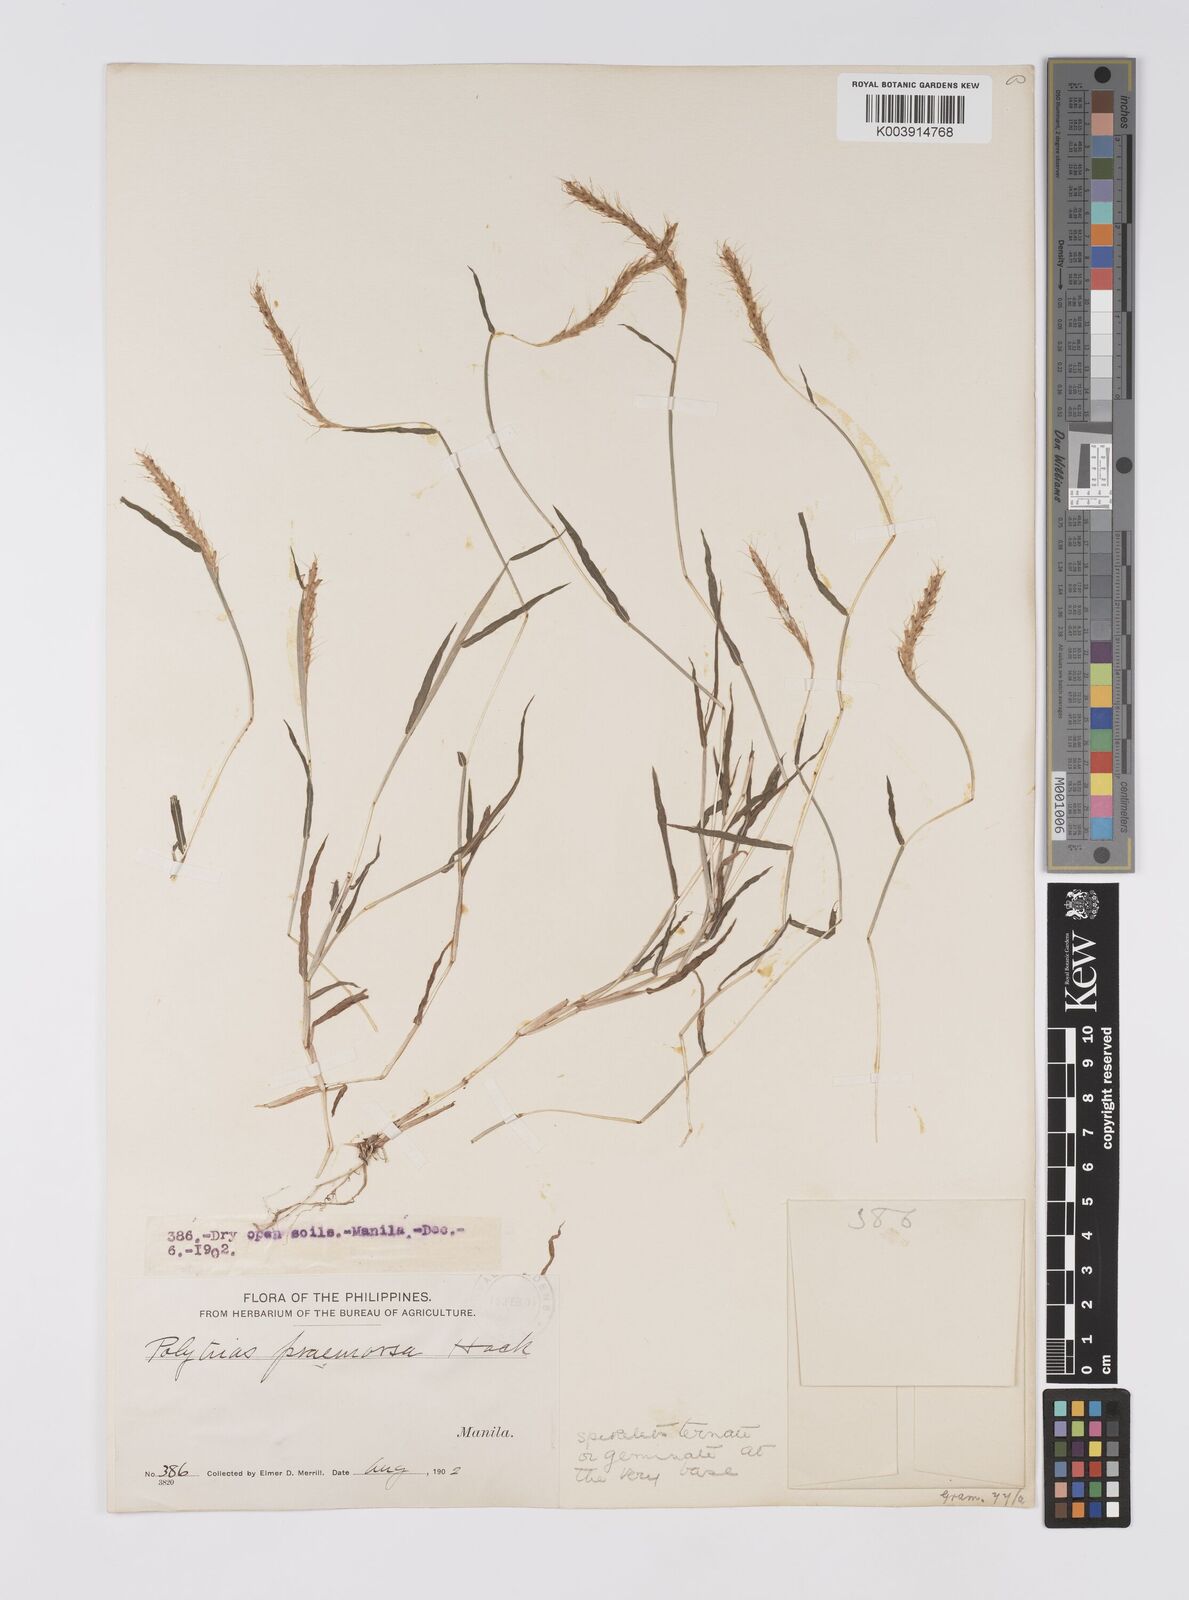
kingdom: Plantae
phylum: Tracheophyta
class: Liliopsida
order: Poales
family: Poaceae
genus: Polytrias
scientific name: Polytrias indica
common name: Indian murainagrass
